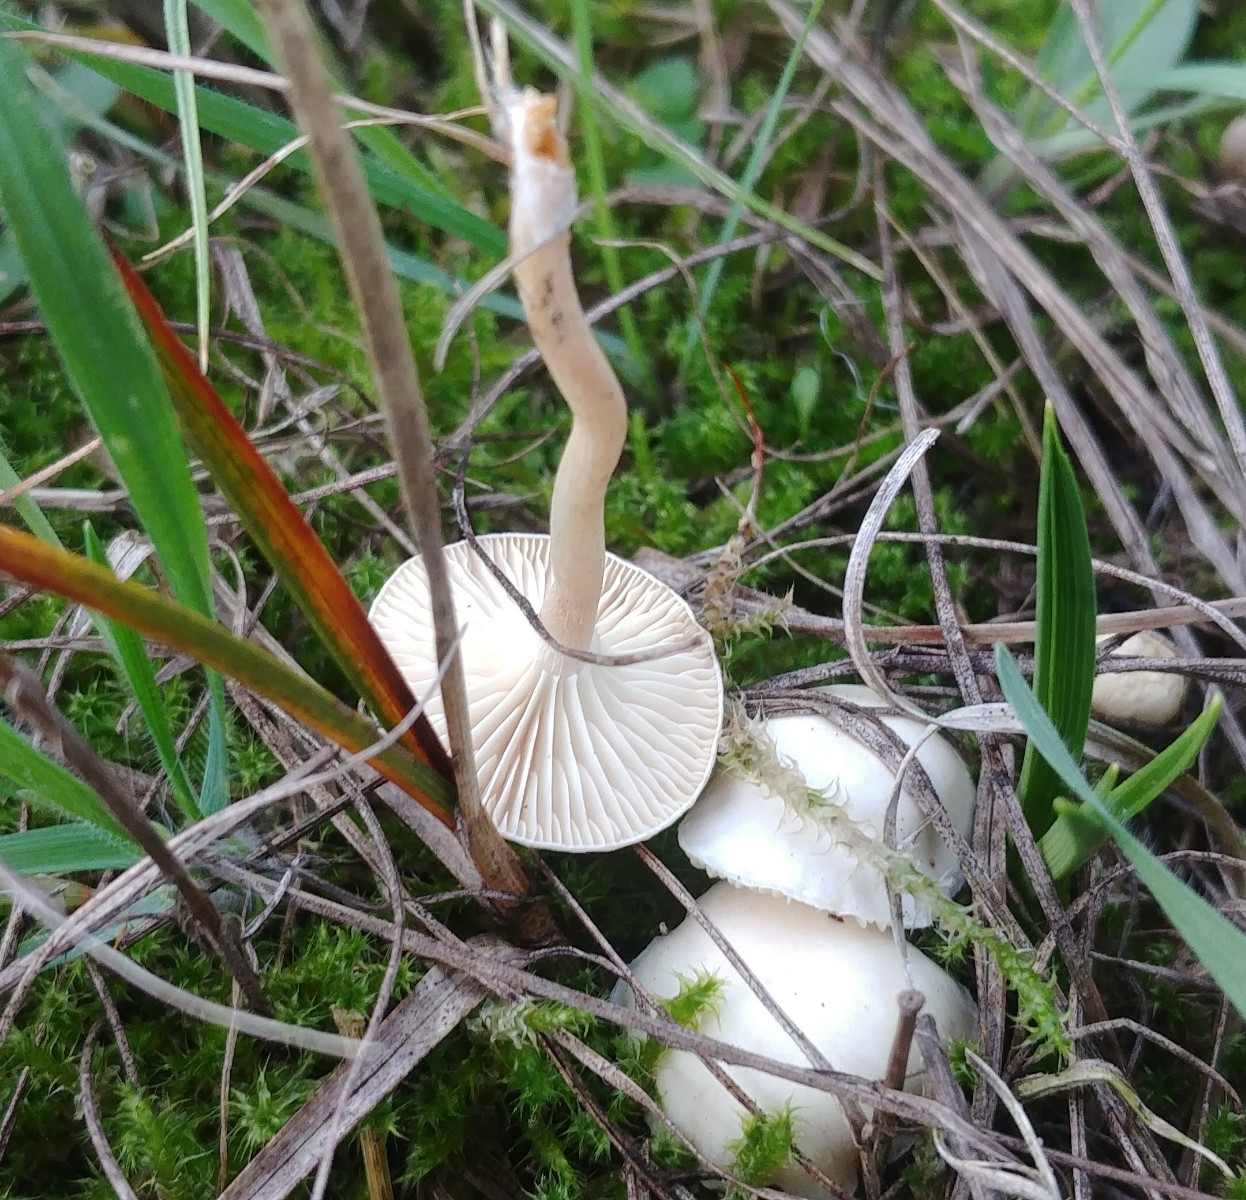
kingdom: Fungi
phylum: Basidiomycota
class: Agaricomycetes
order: Agaricales
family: Hygrophoraceae
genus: Cuphophyllus
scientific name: Cuphophyllus virgineus
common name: snehvid vokshat
